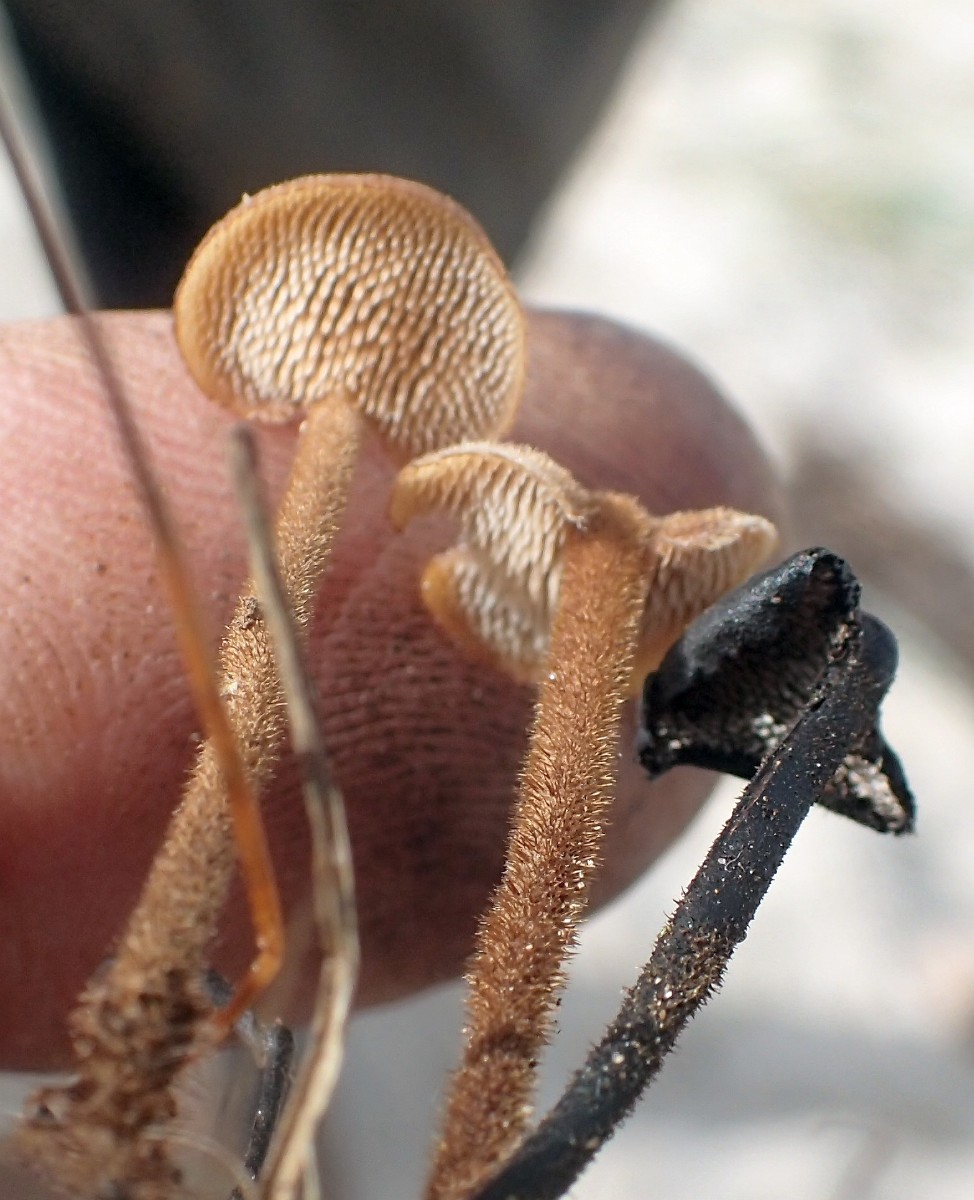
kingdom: Fungi
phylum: Basidiomycota
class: Agaricomycetes
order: Russulales
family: Auriscalpiaceae
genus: Auriscalpium
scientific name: Auriscalpium vulgare
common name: koglepigsvamp
